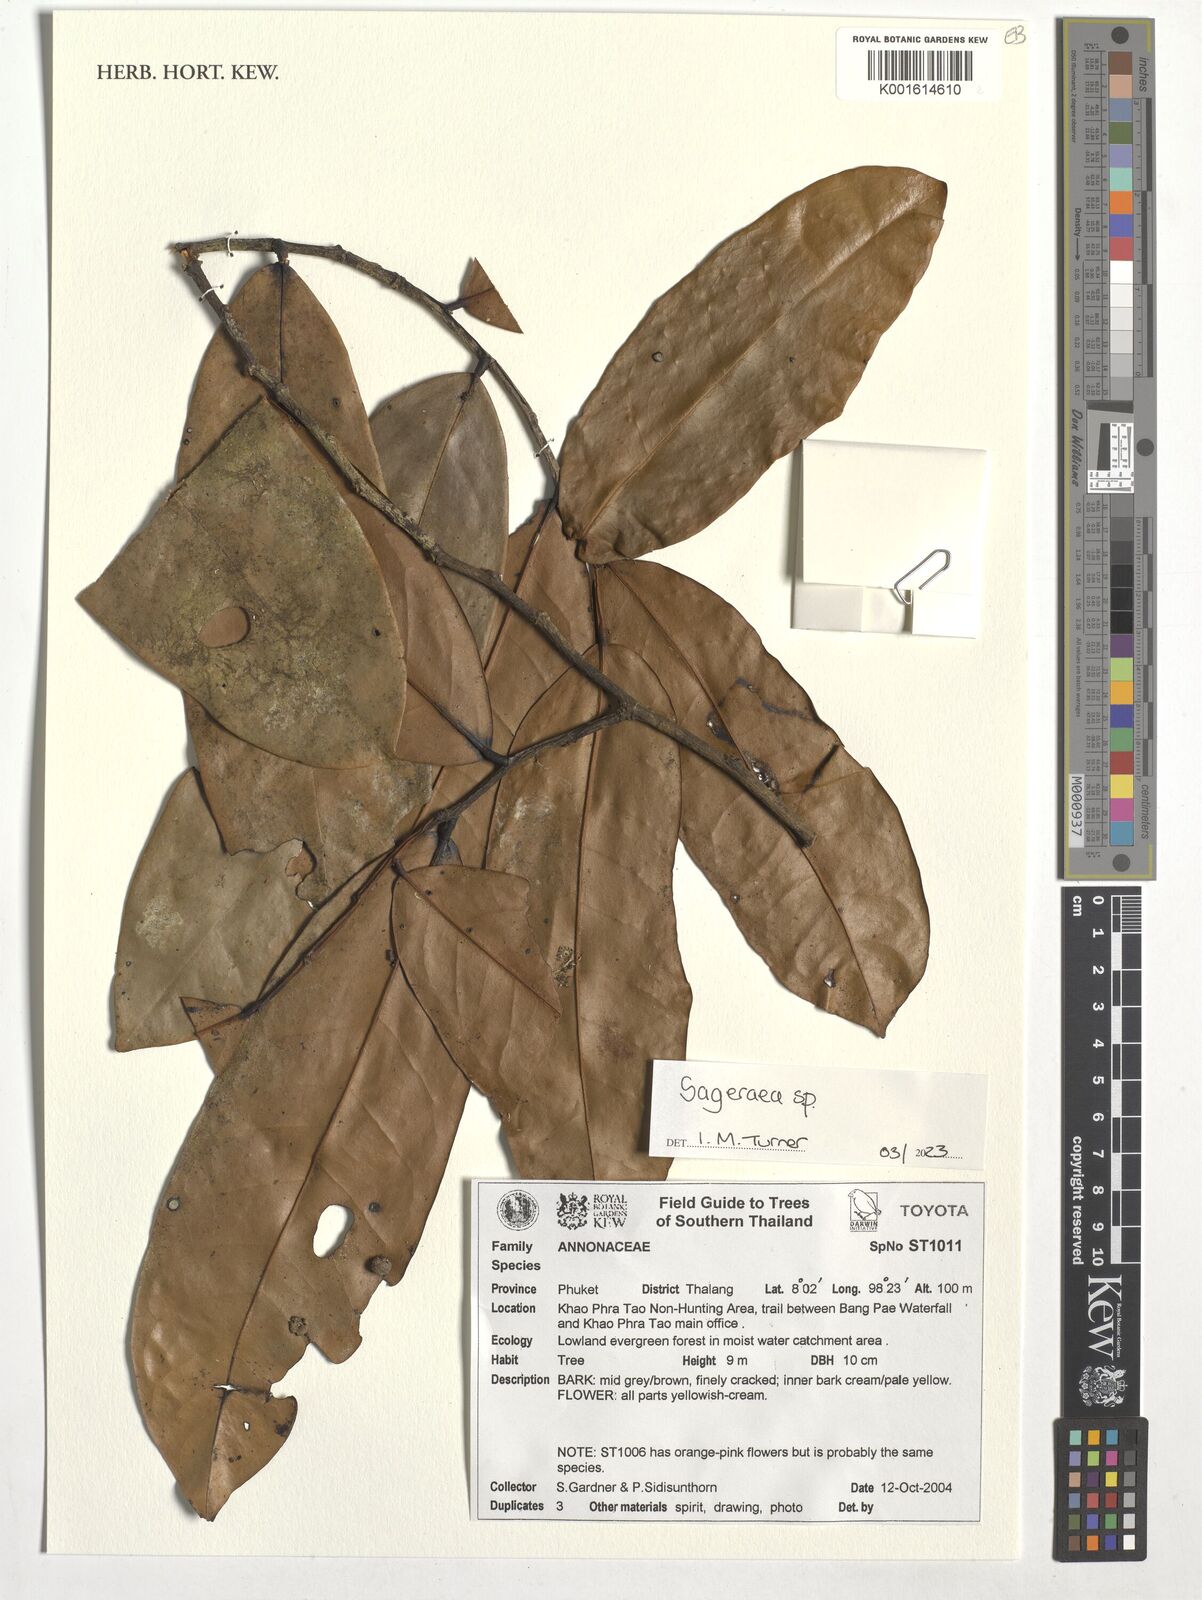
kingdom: Plantae
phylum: Tracheophyta
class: Magnoliopsida
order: Magnoliales
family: Annonaceae
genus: Sageraea
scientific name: Sageraea
